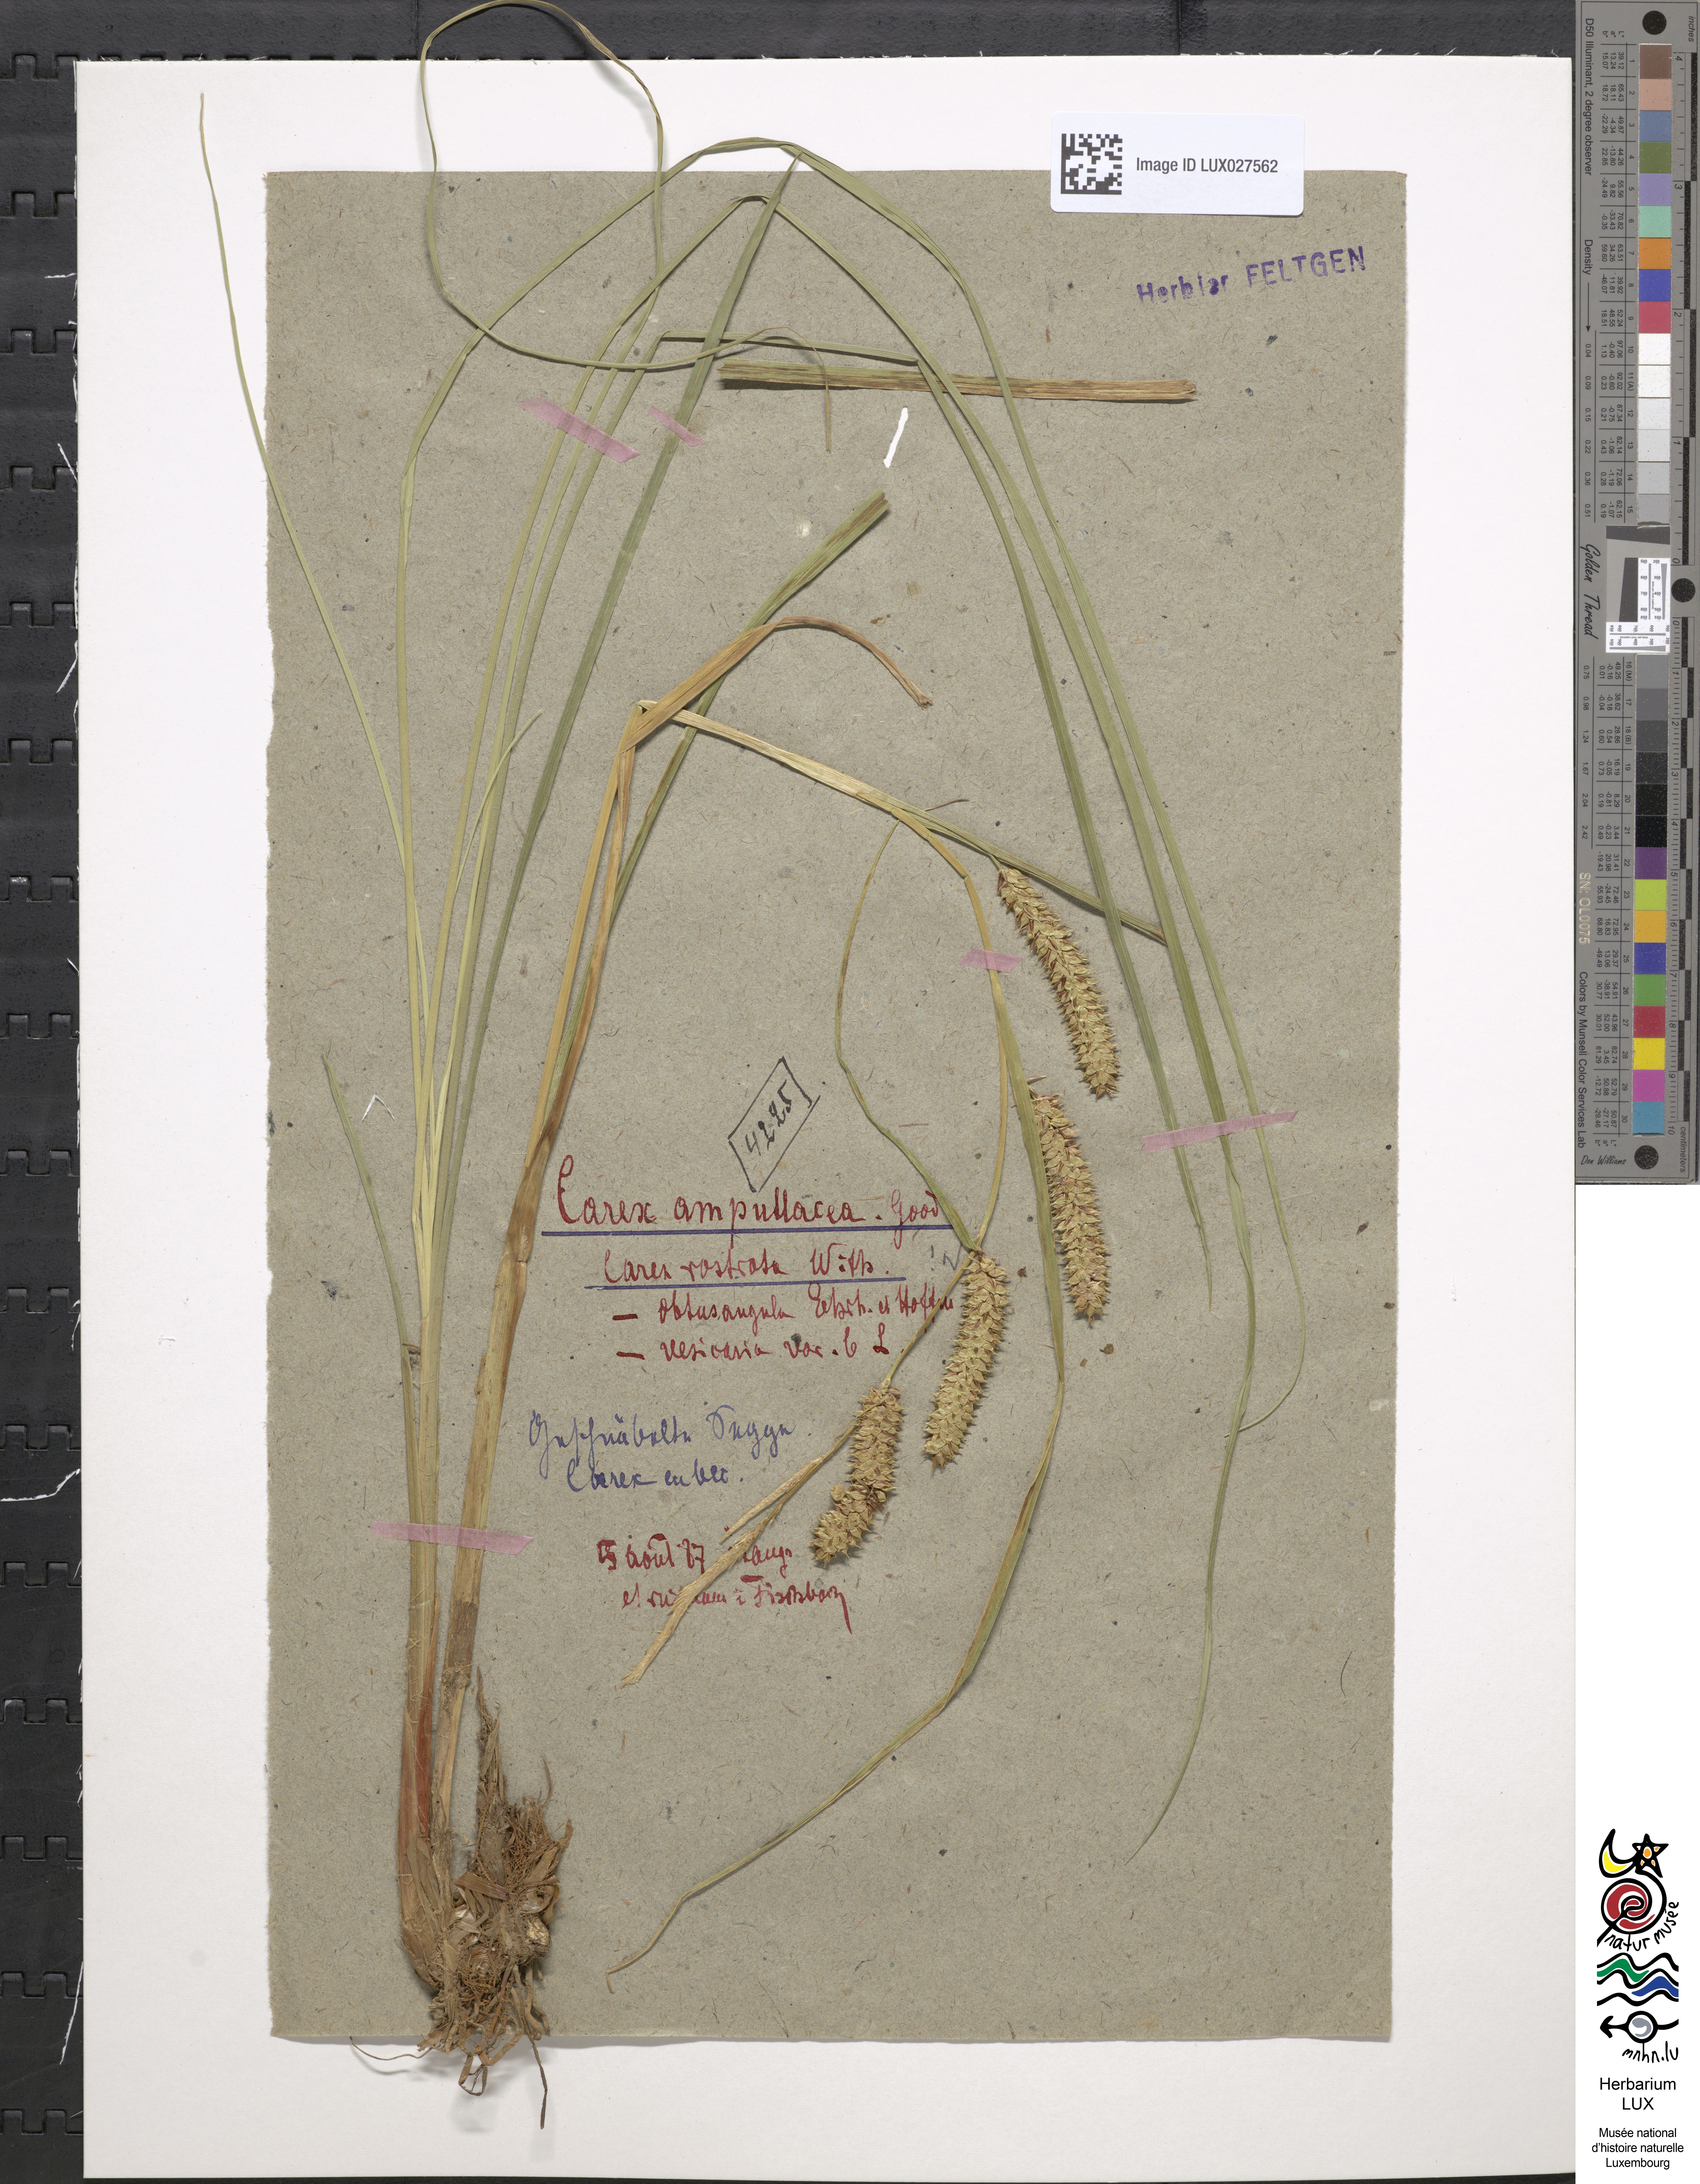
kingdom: Plantae
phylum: Tracheophyta
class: Liliopsida
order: Poales
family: Cyperaceae
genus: Carex
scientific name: Carex rostrata
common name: Bottle sedge
